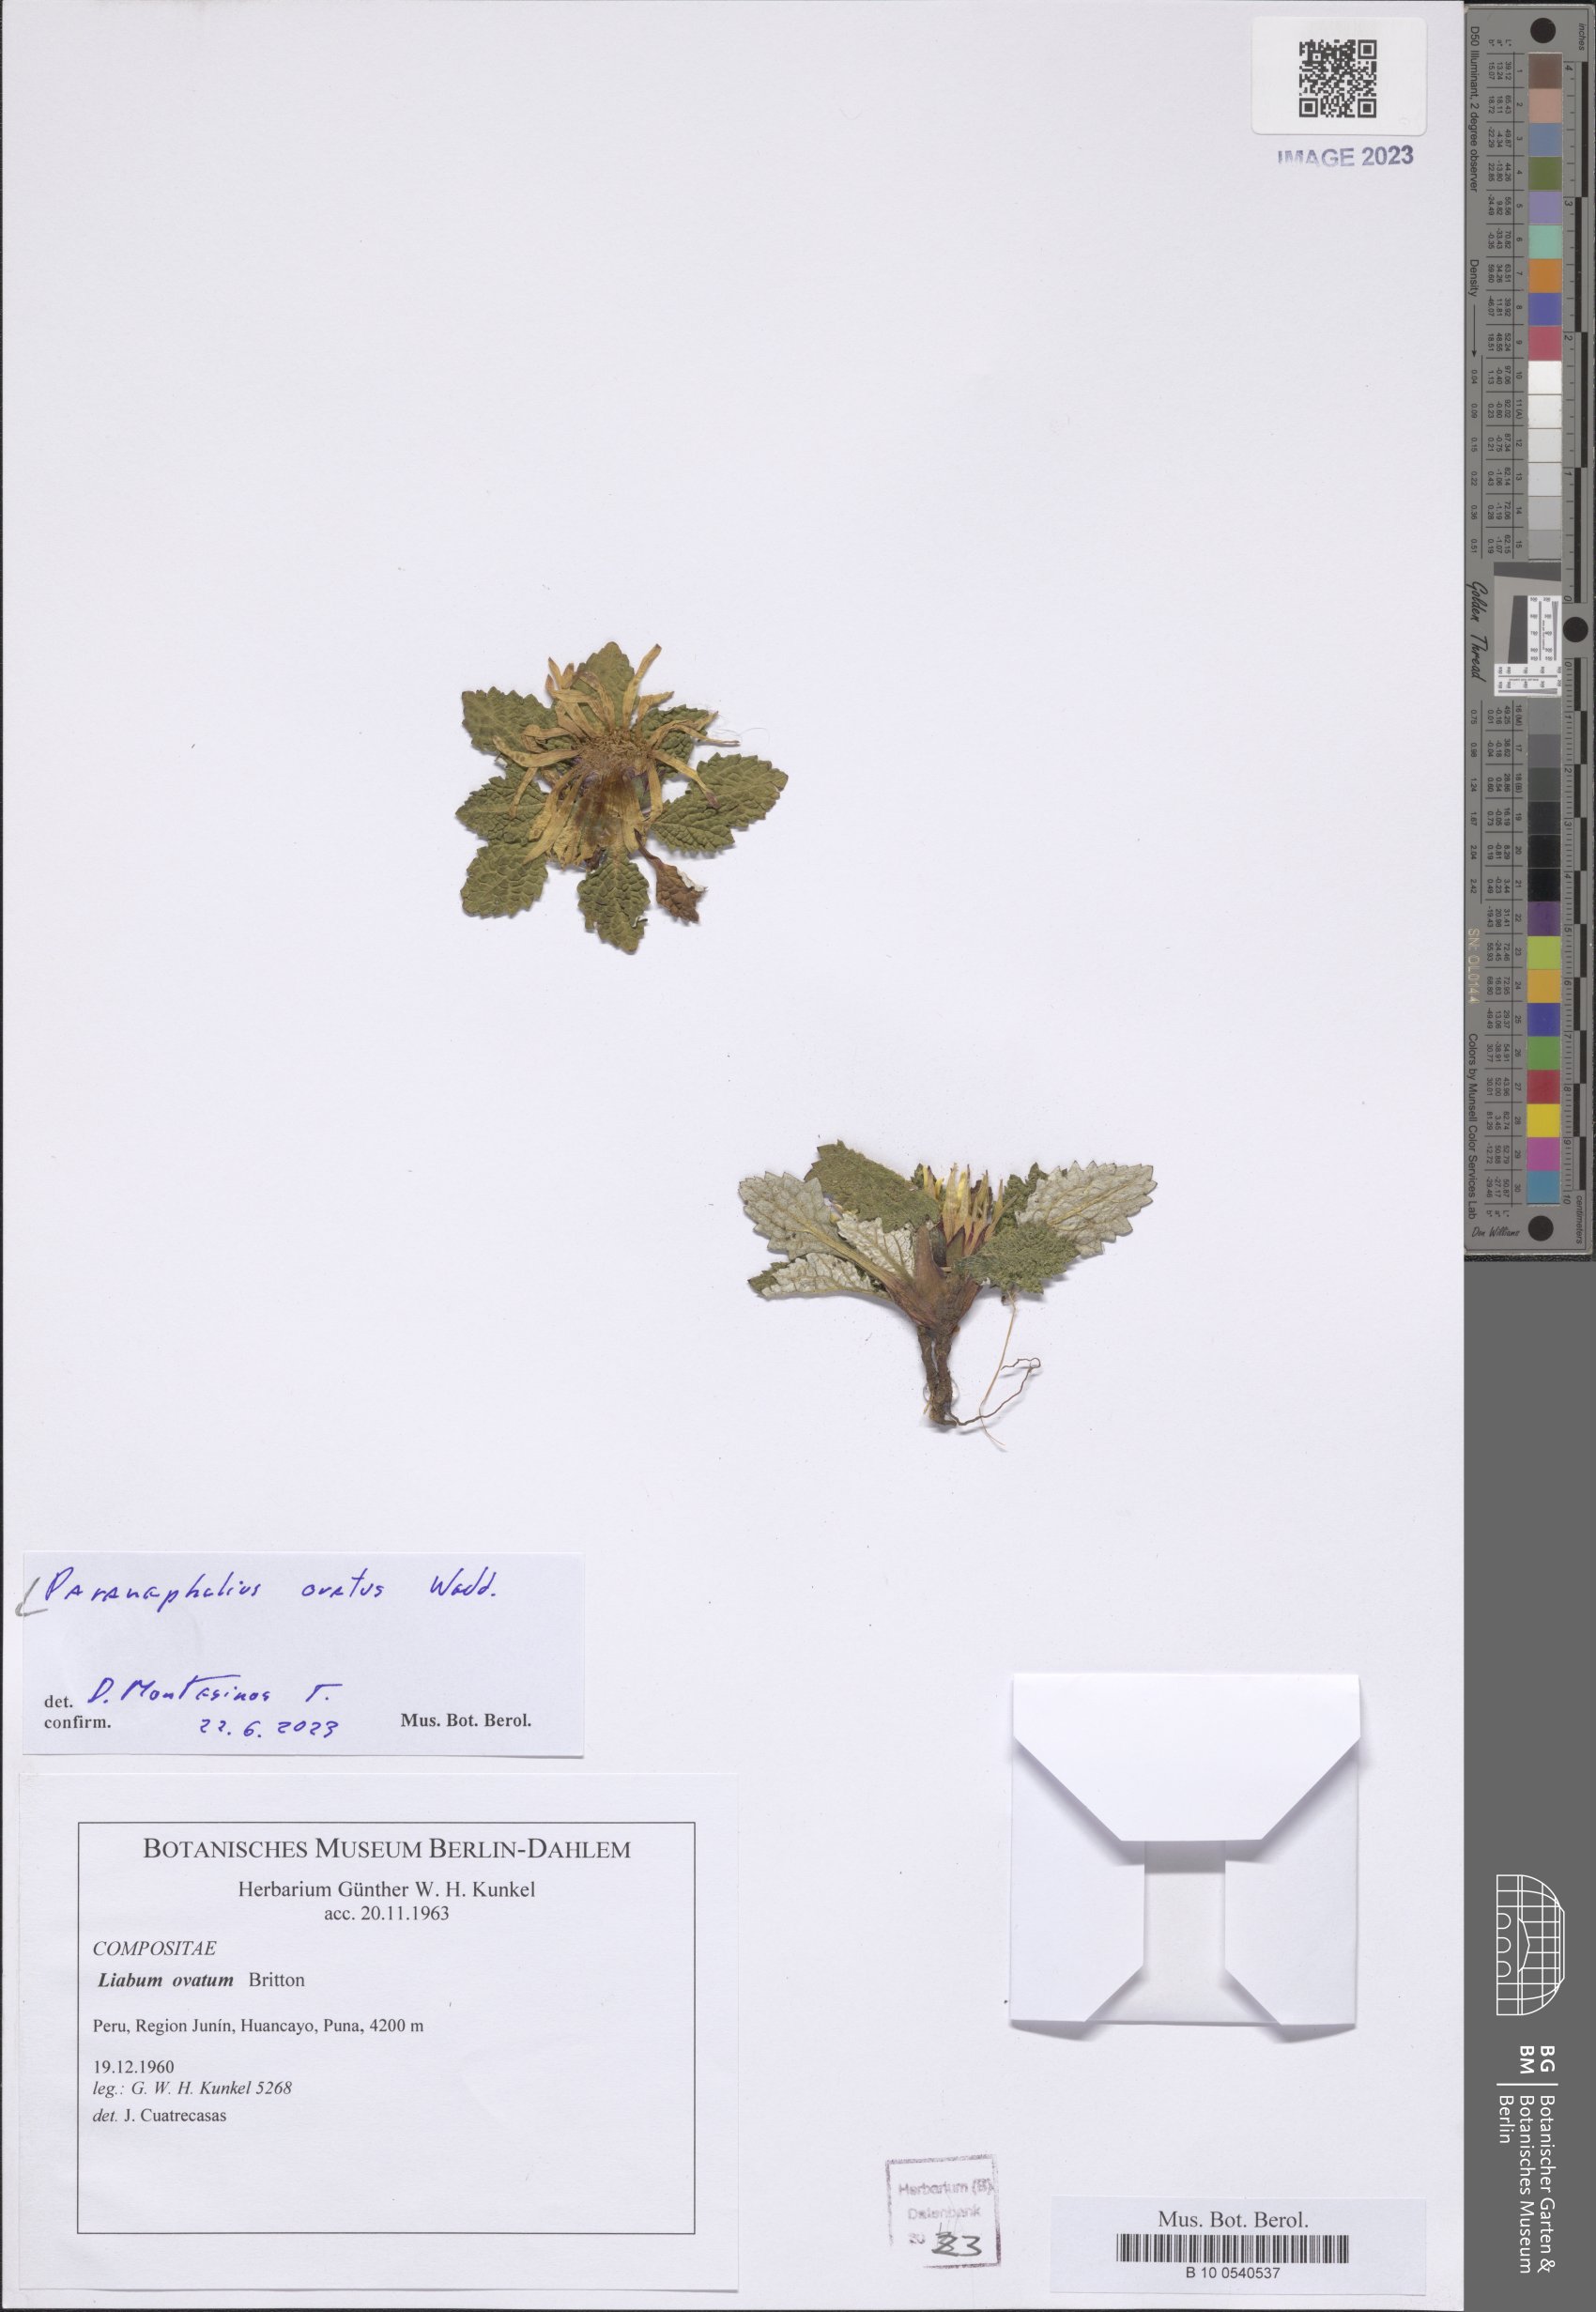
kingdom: Plantae
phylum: Tracheophyta
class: Magnoliopsida
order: Asterales
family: Asteraceae
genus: Paranephelius
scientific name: Paranephelius ovatus
